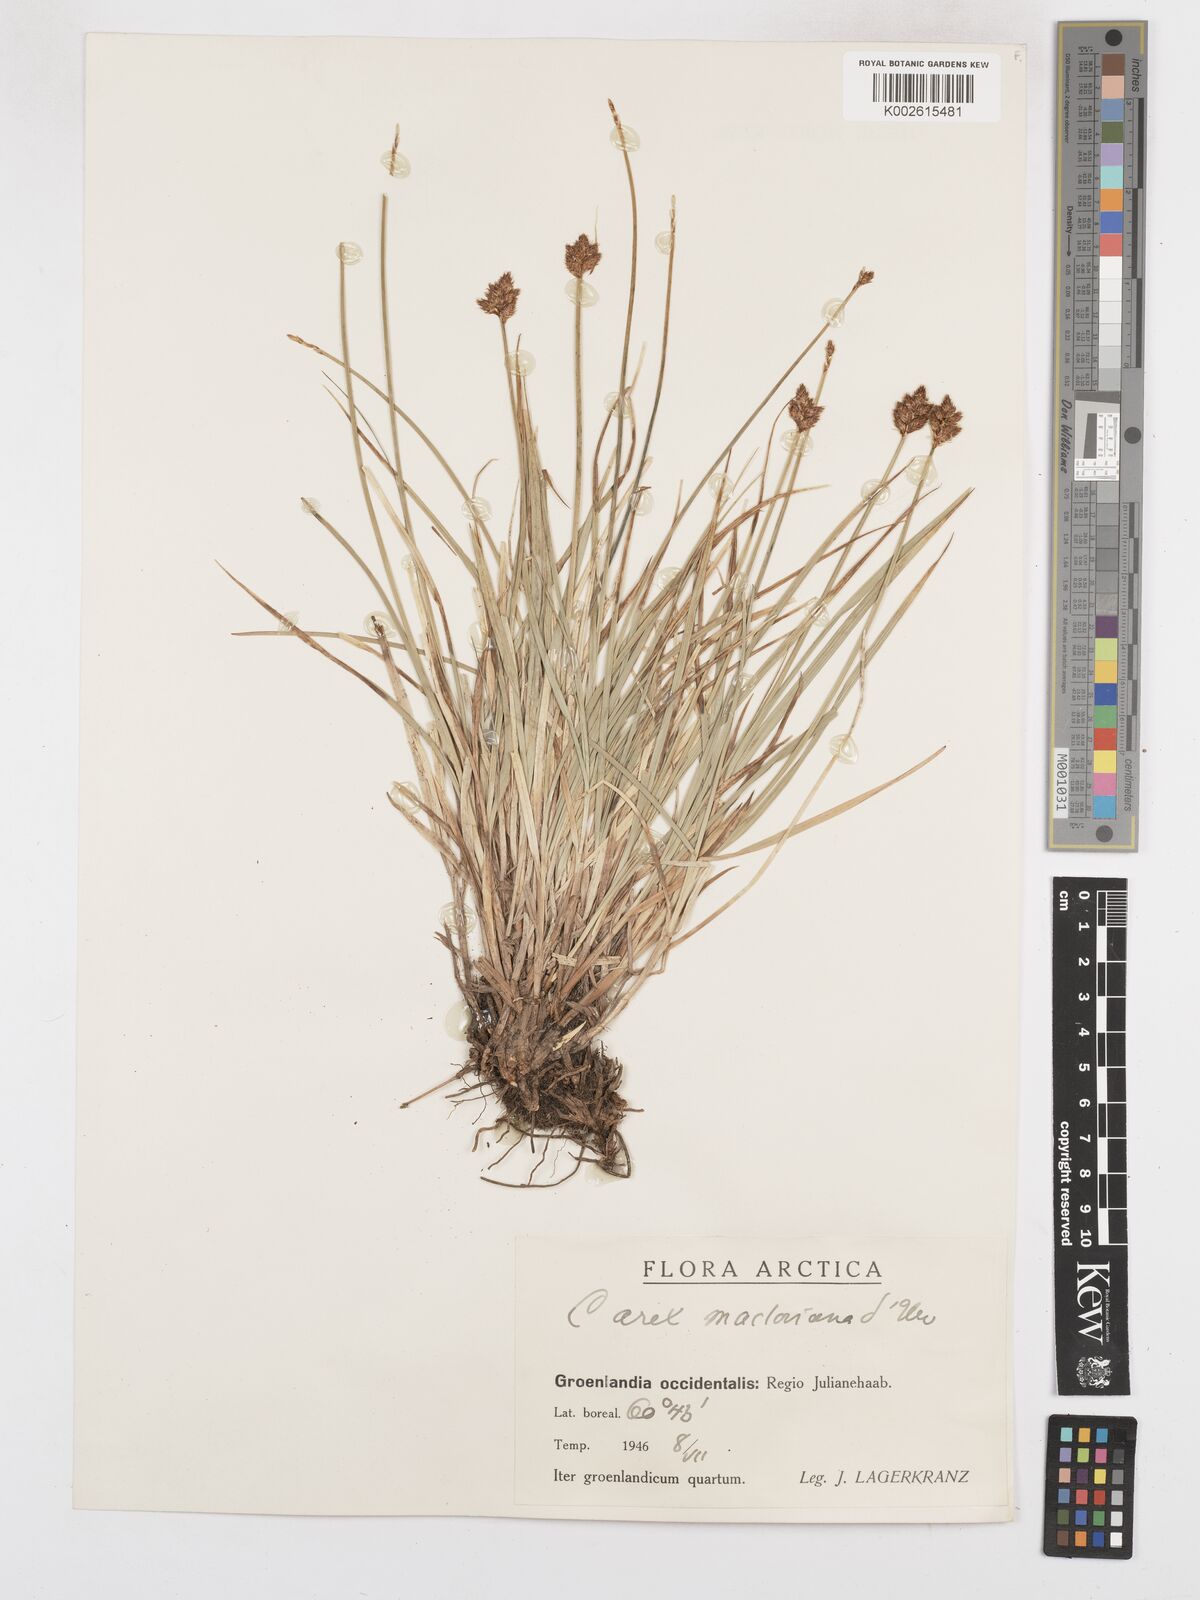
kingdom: Plantae
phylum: Tracheophyta
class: Liliopsida
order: Poales
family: Cyperaceae
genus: Carex
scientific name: Carex
